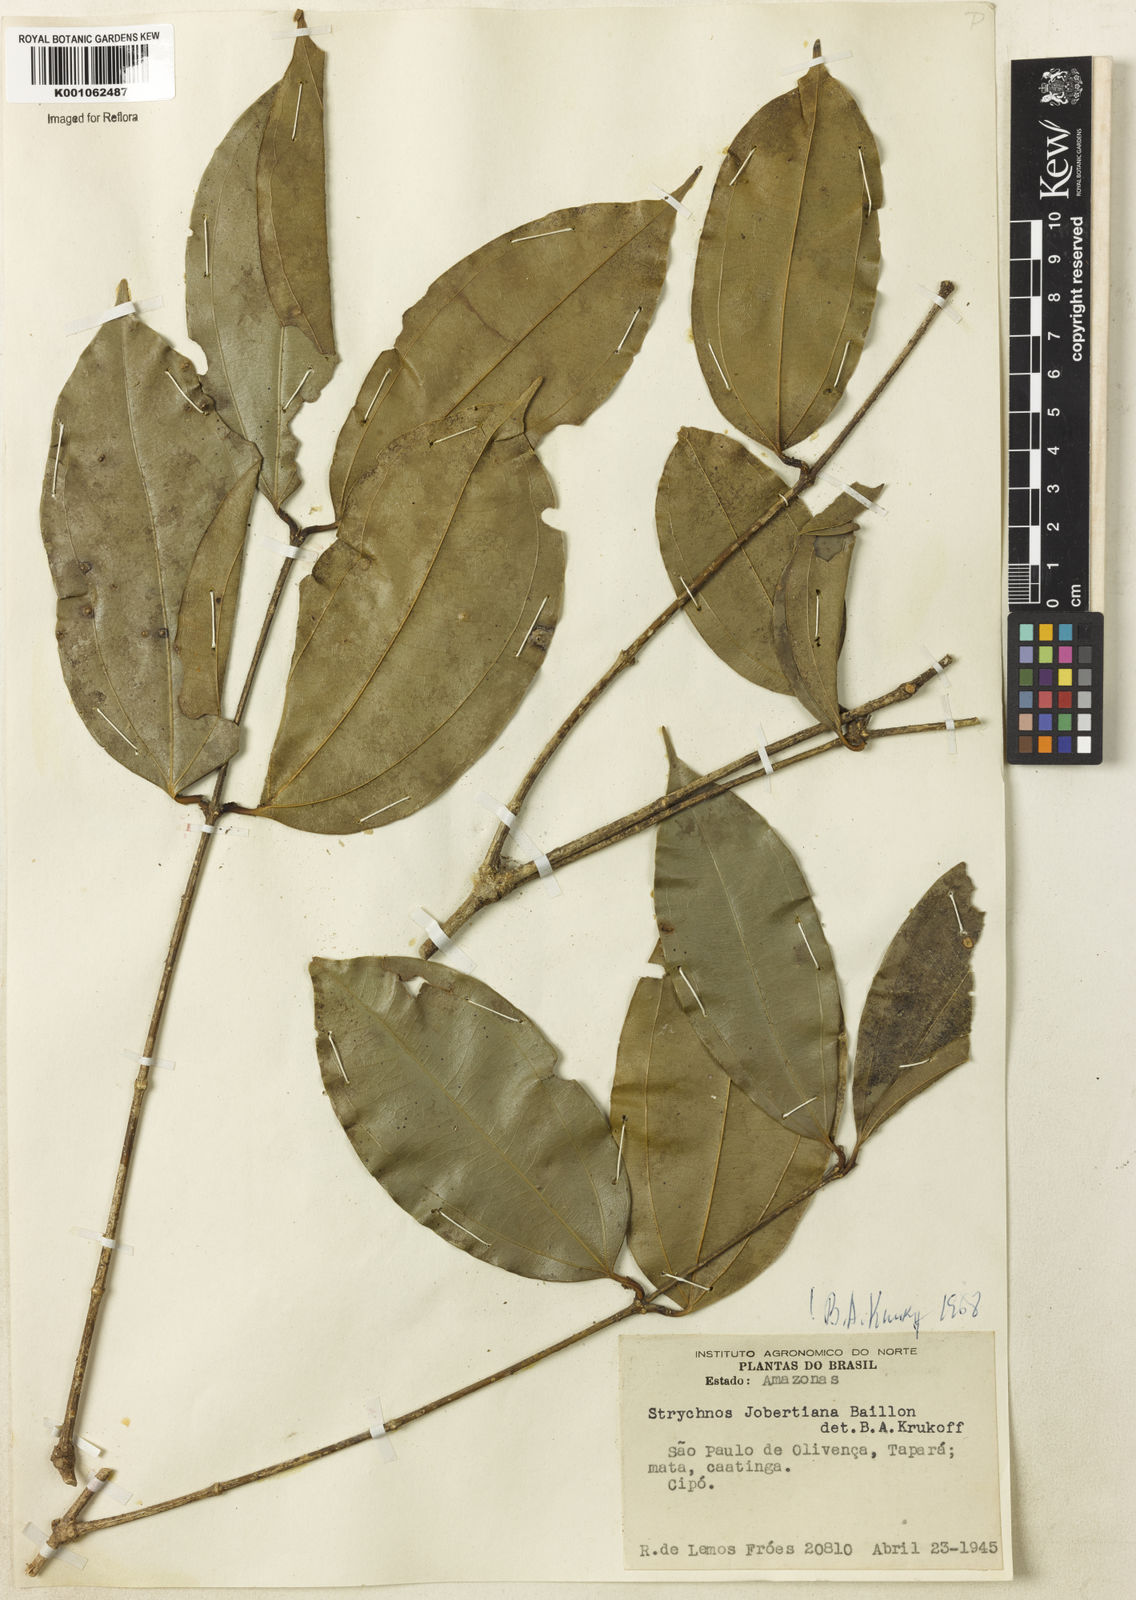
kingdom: Plantae
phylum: Tracheophyta
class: Magnoliopsida
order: Gentianales
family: Loganiaceae
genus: Strychnos
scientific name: Strychnos jobertiana
